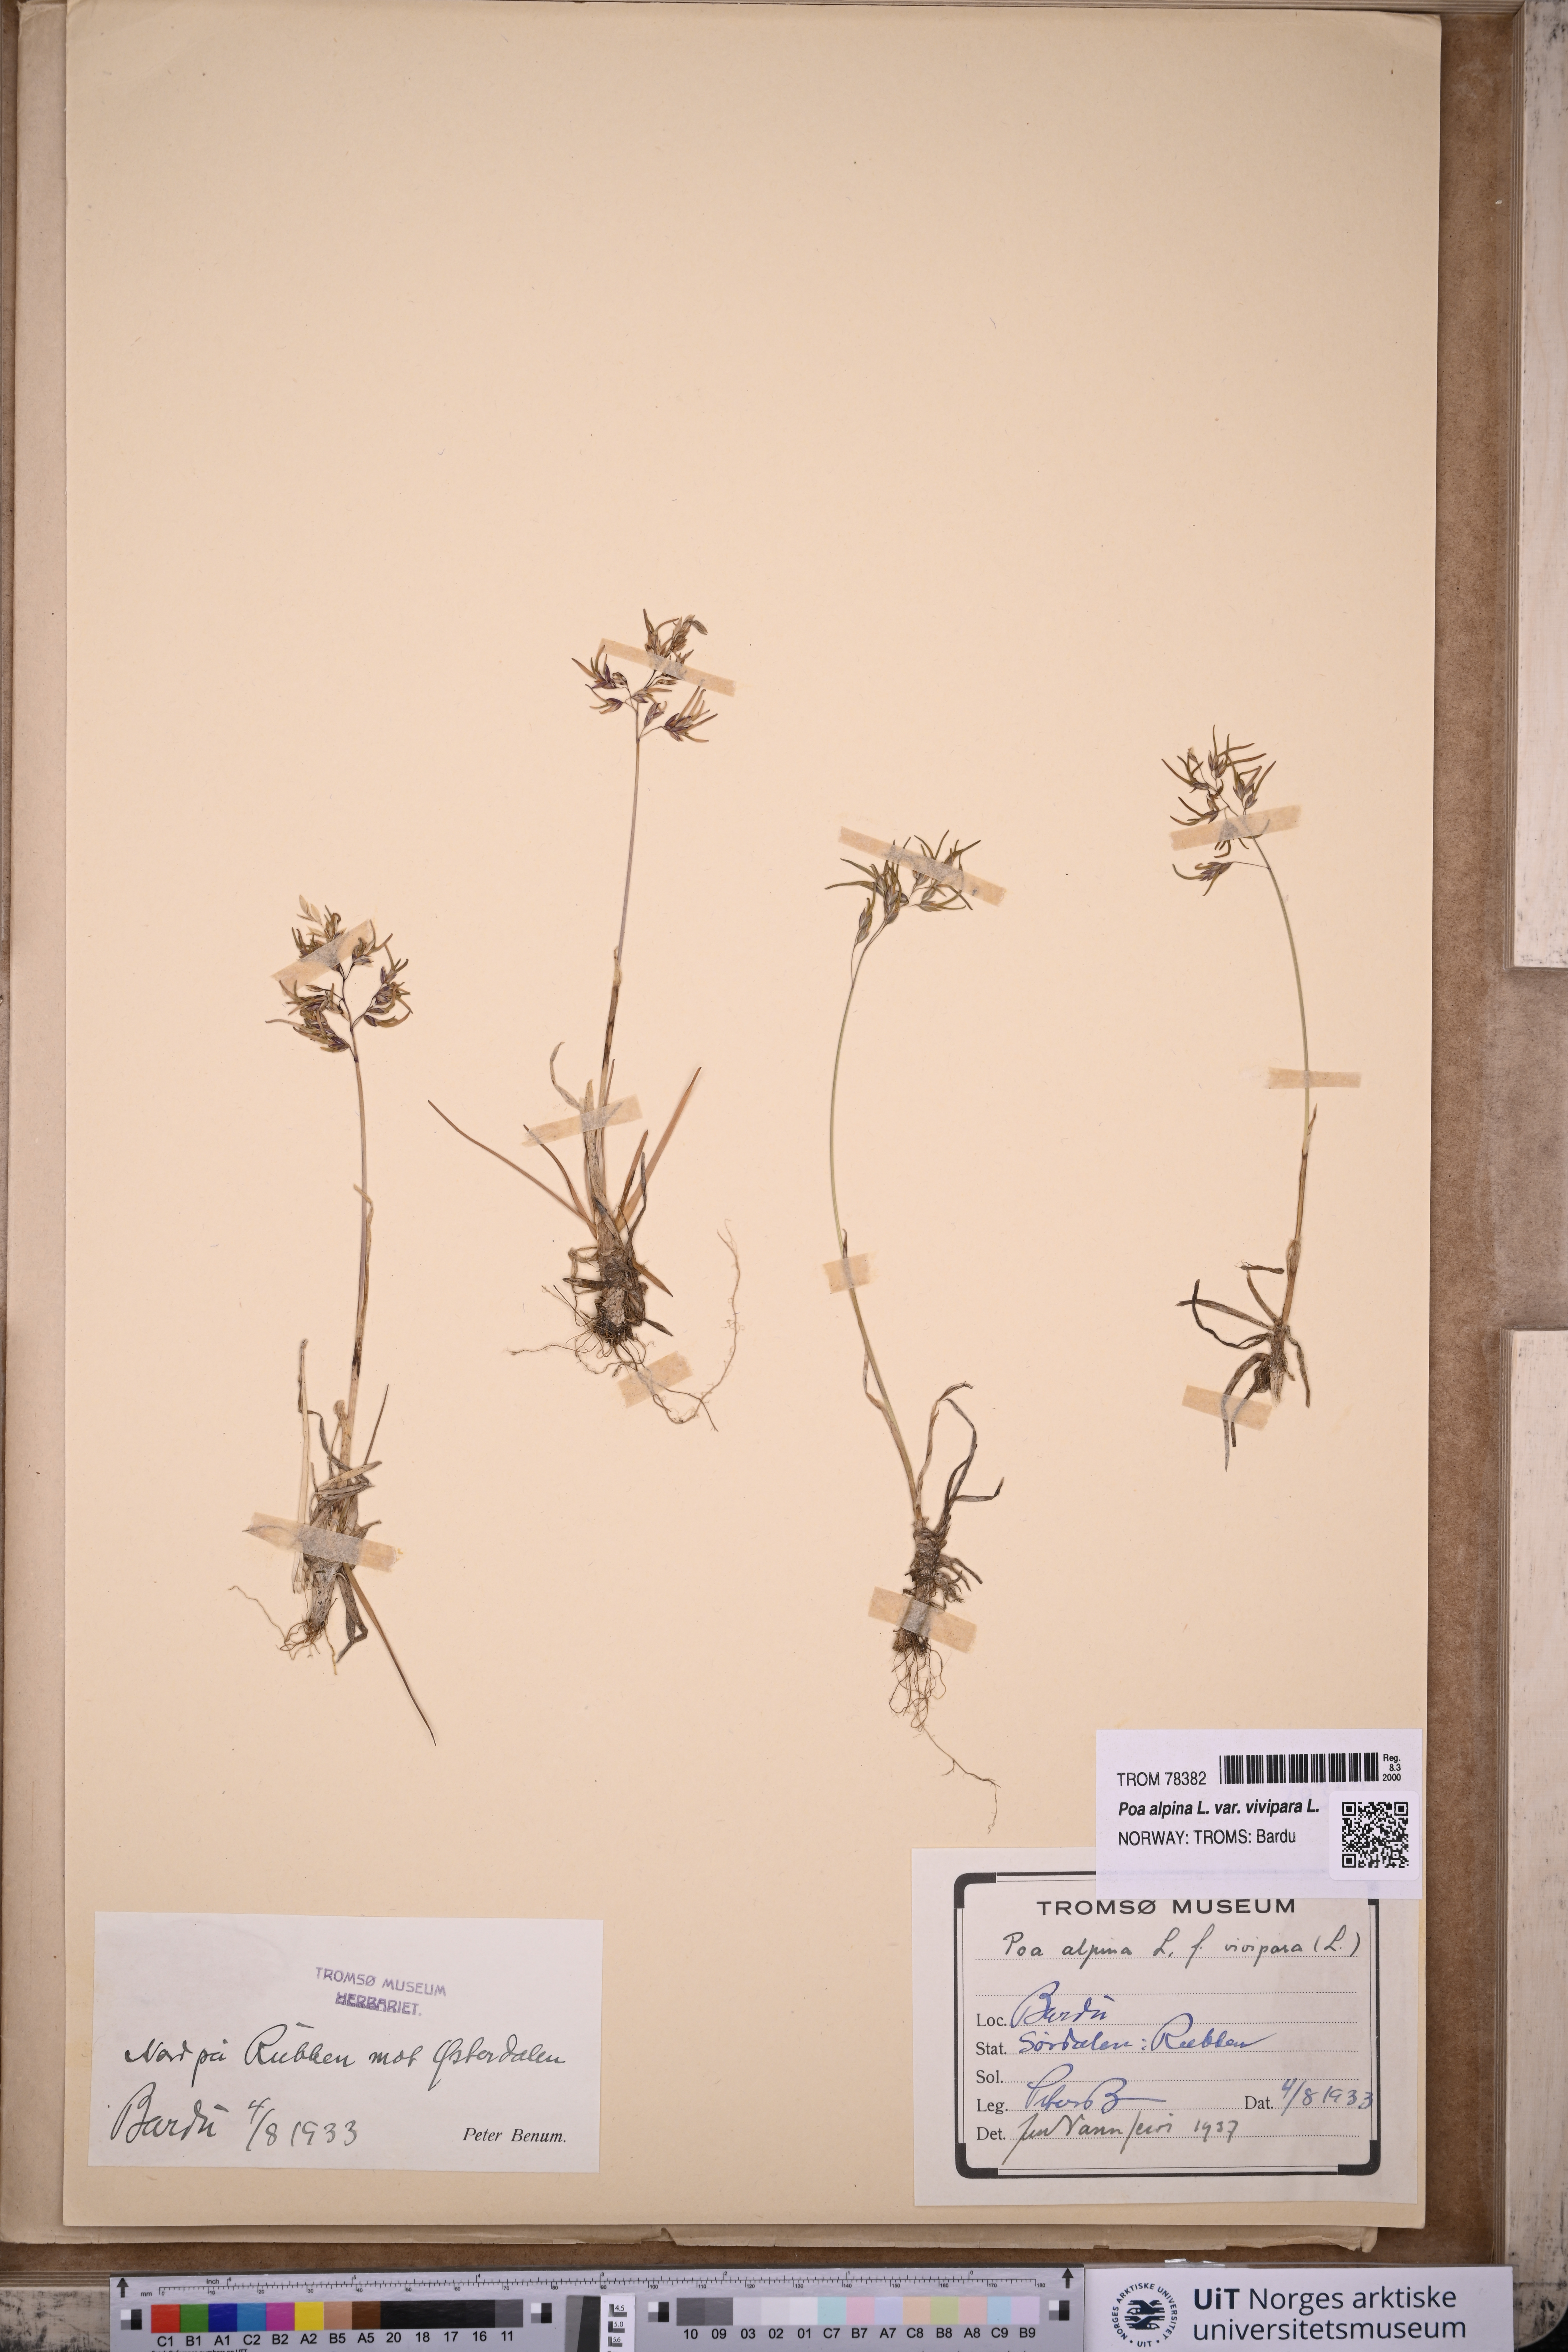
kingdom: Plantae
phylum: Tracheophyta
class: Liliopsida
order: Poales
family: Poaceae
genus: Poa
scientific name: Poa alpina
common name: Alpine bluegrass
